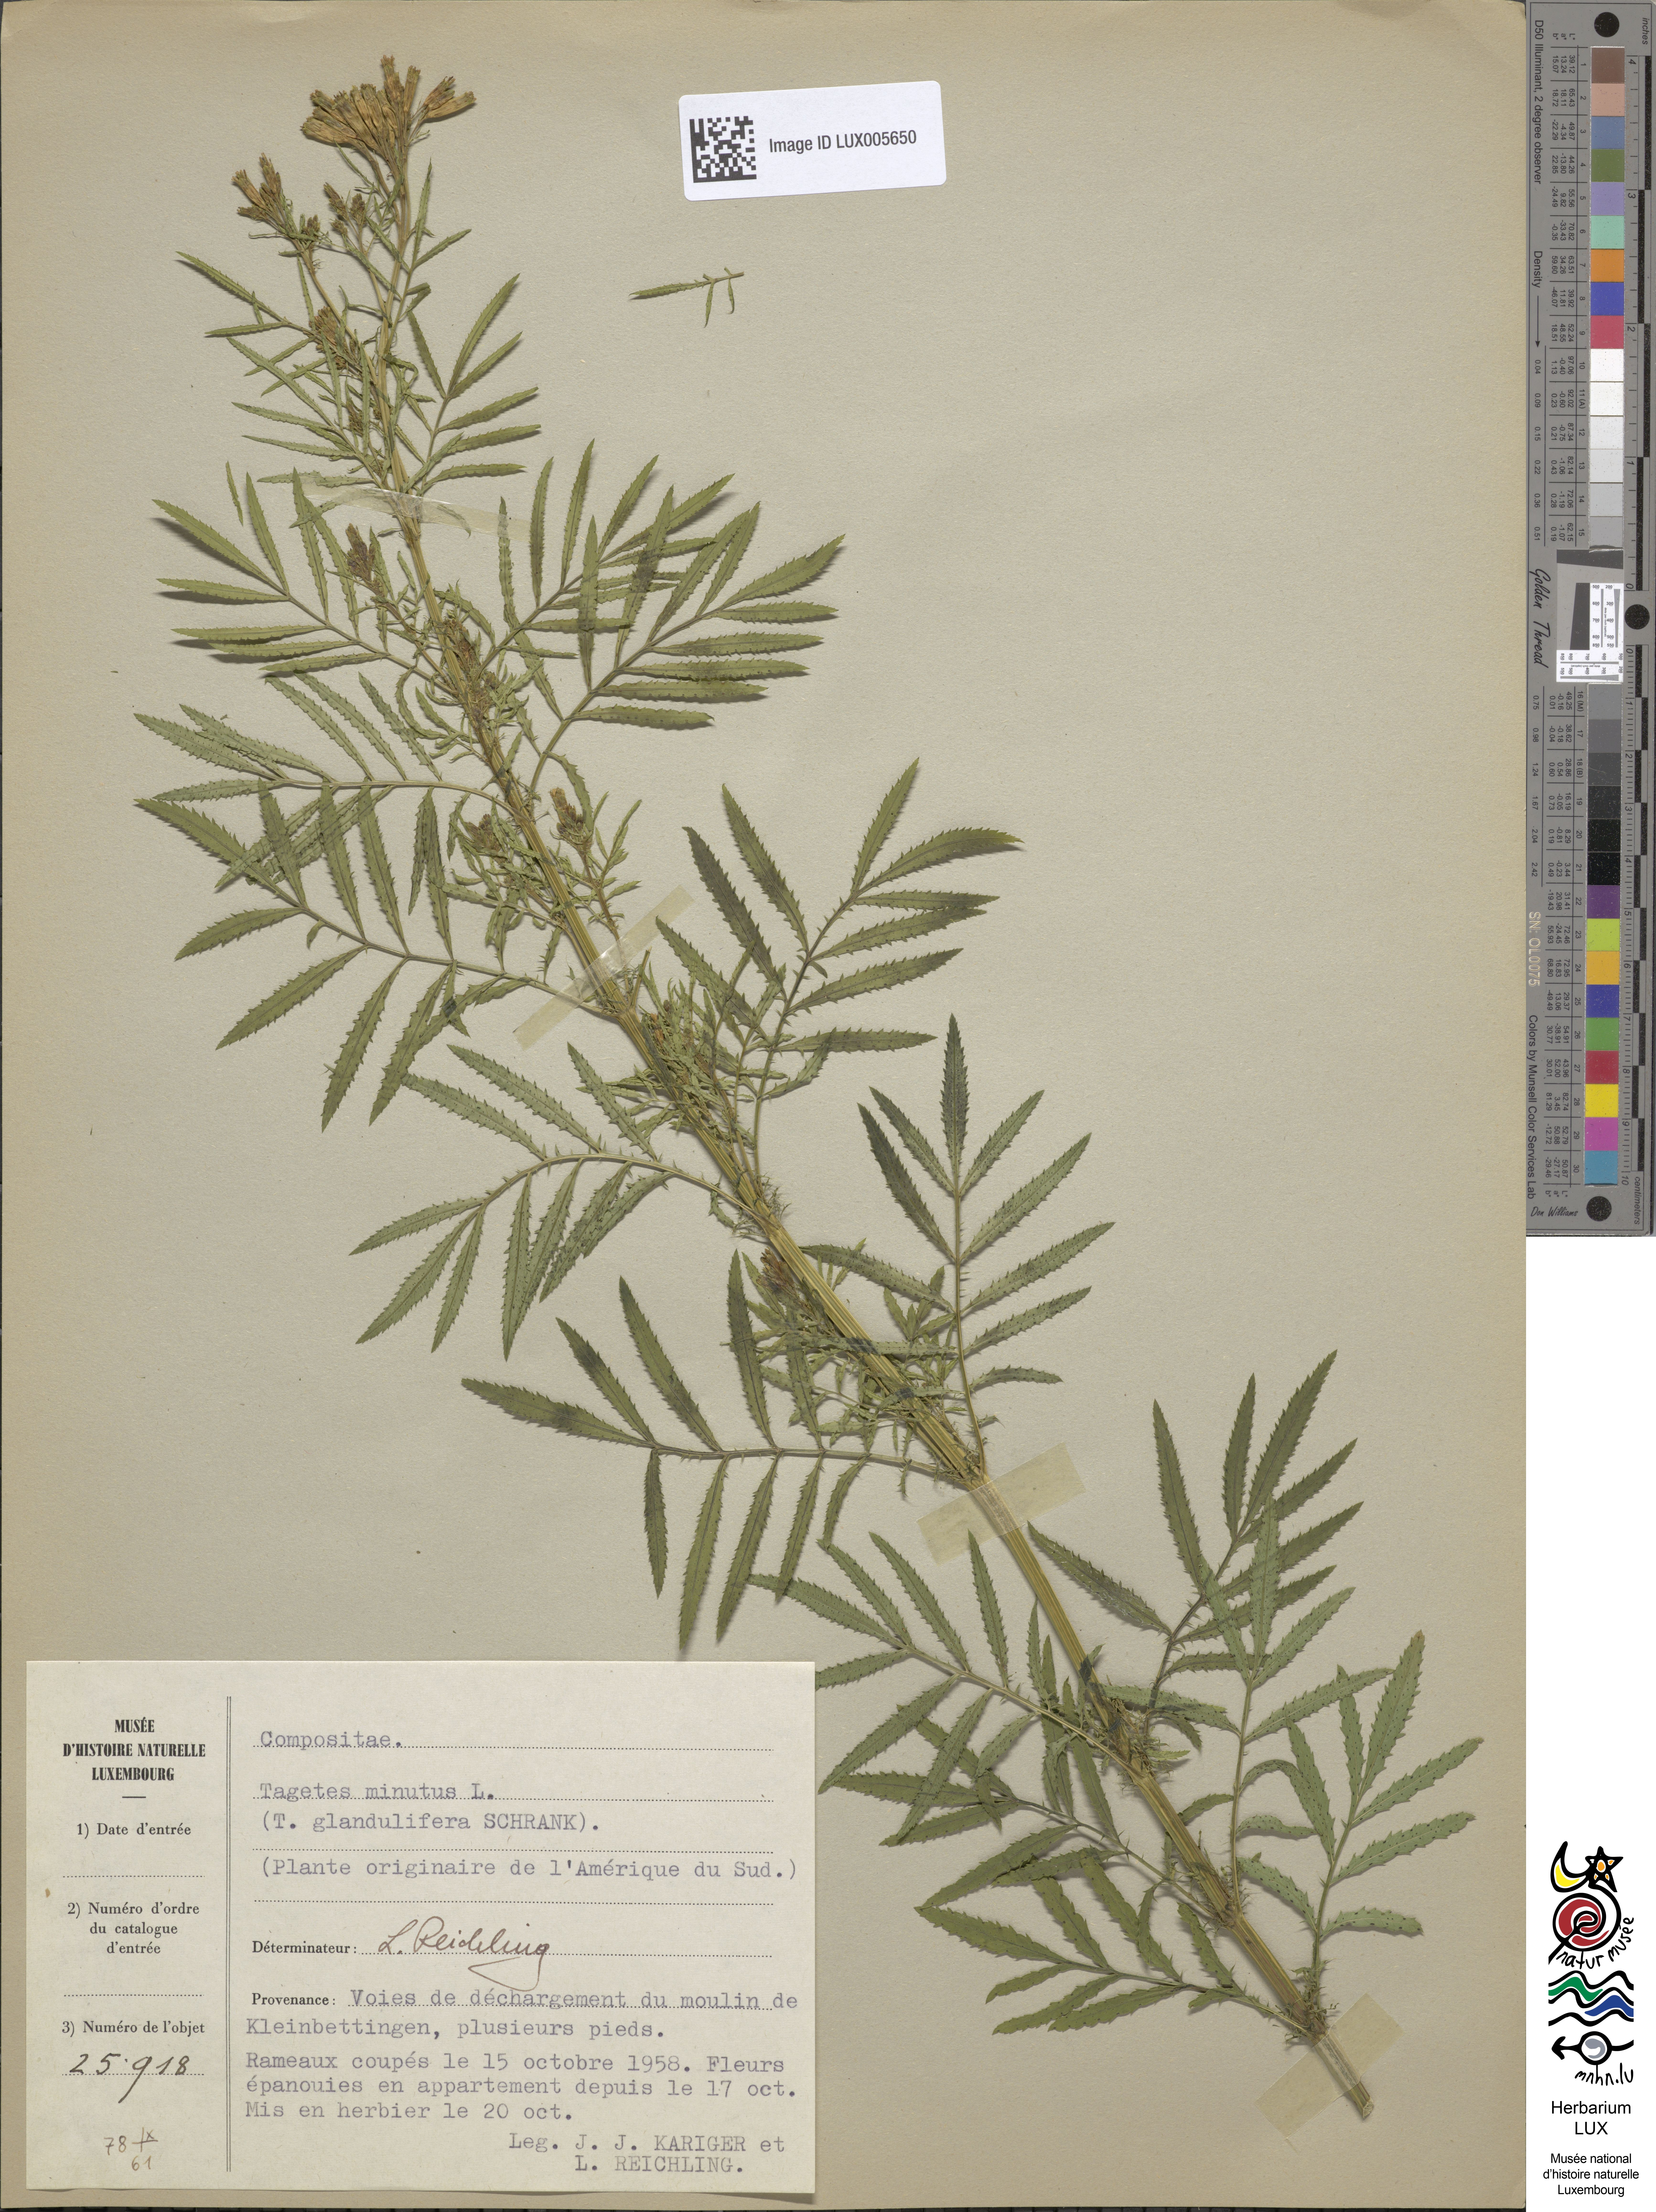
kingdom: Plantae
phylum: Tracheophyta
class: Magnoliopsida
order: Asterales
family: Asteraceae
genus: Tagetes
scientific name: Tagetes minuta
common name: Muster john henry
